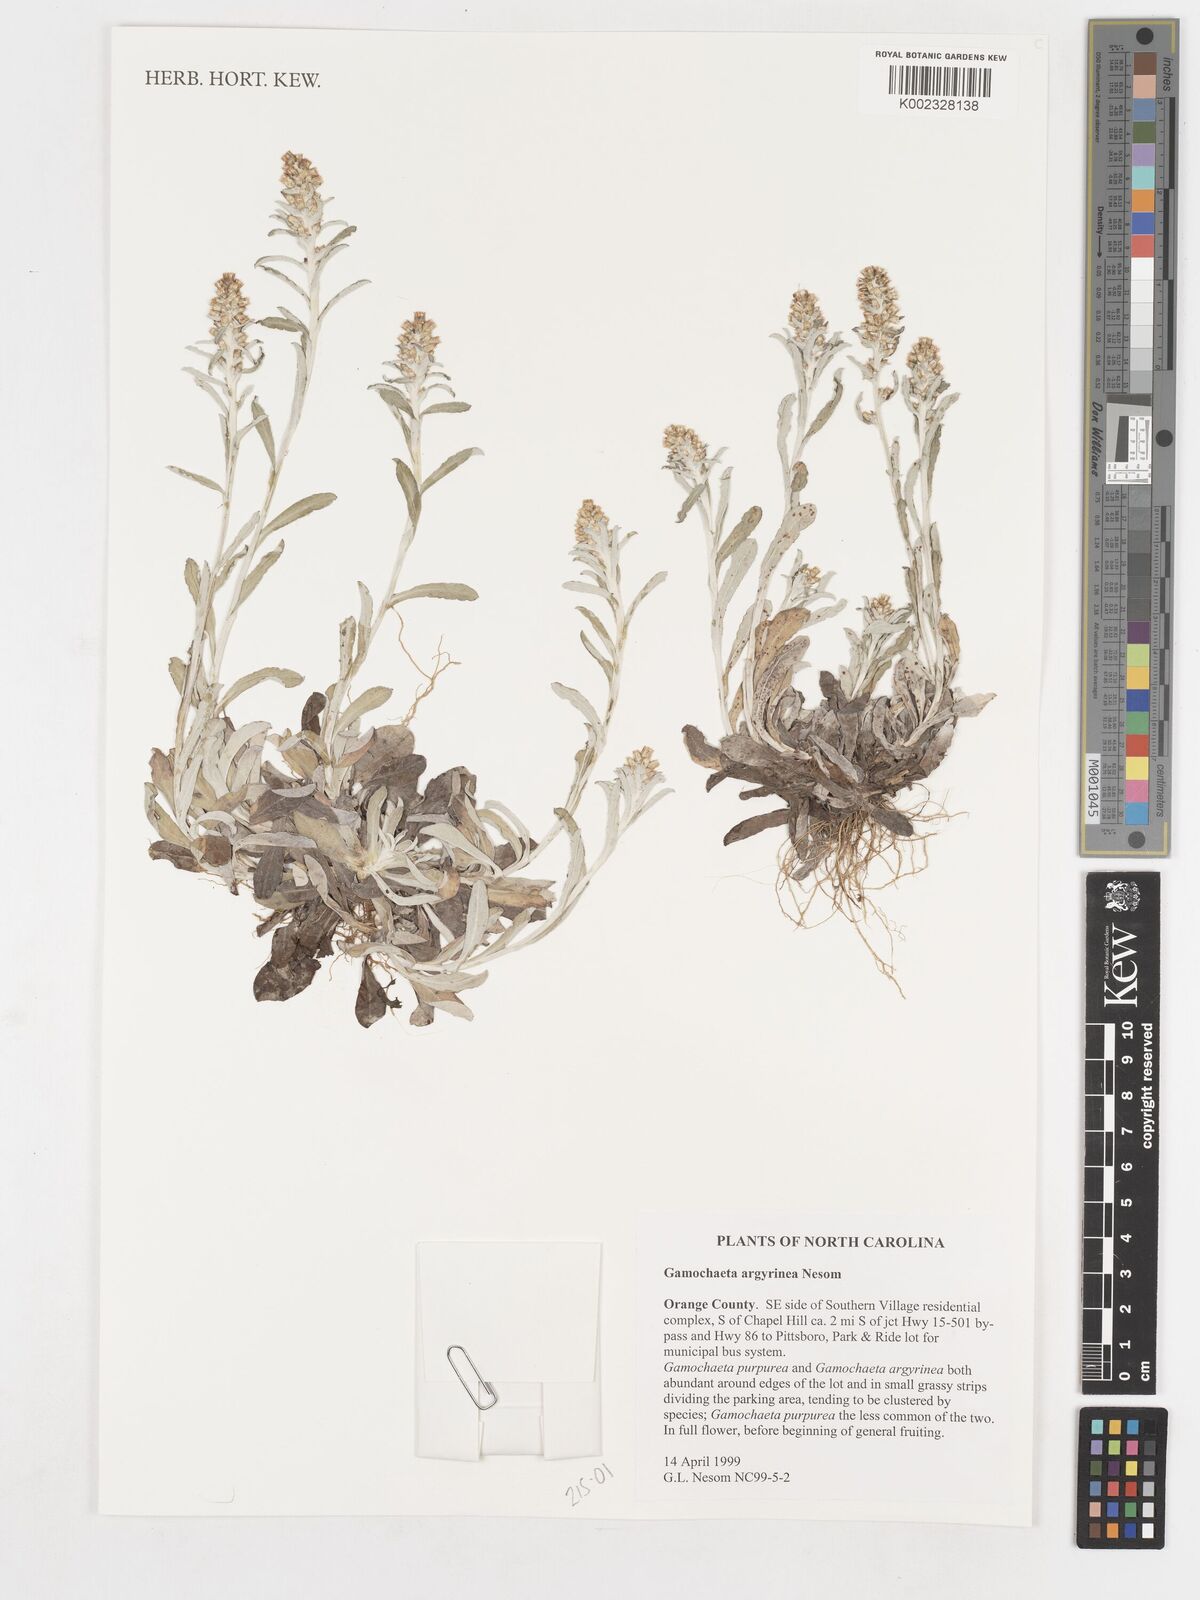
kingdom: Plantae
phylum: Tracheophyta
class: Magnoliopsida
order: Asterales
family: Asteraceae
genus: Gamochaeta
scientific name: Gamochaeta argyrinea
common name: Silvery cudweed
